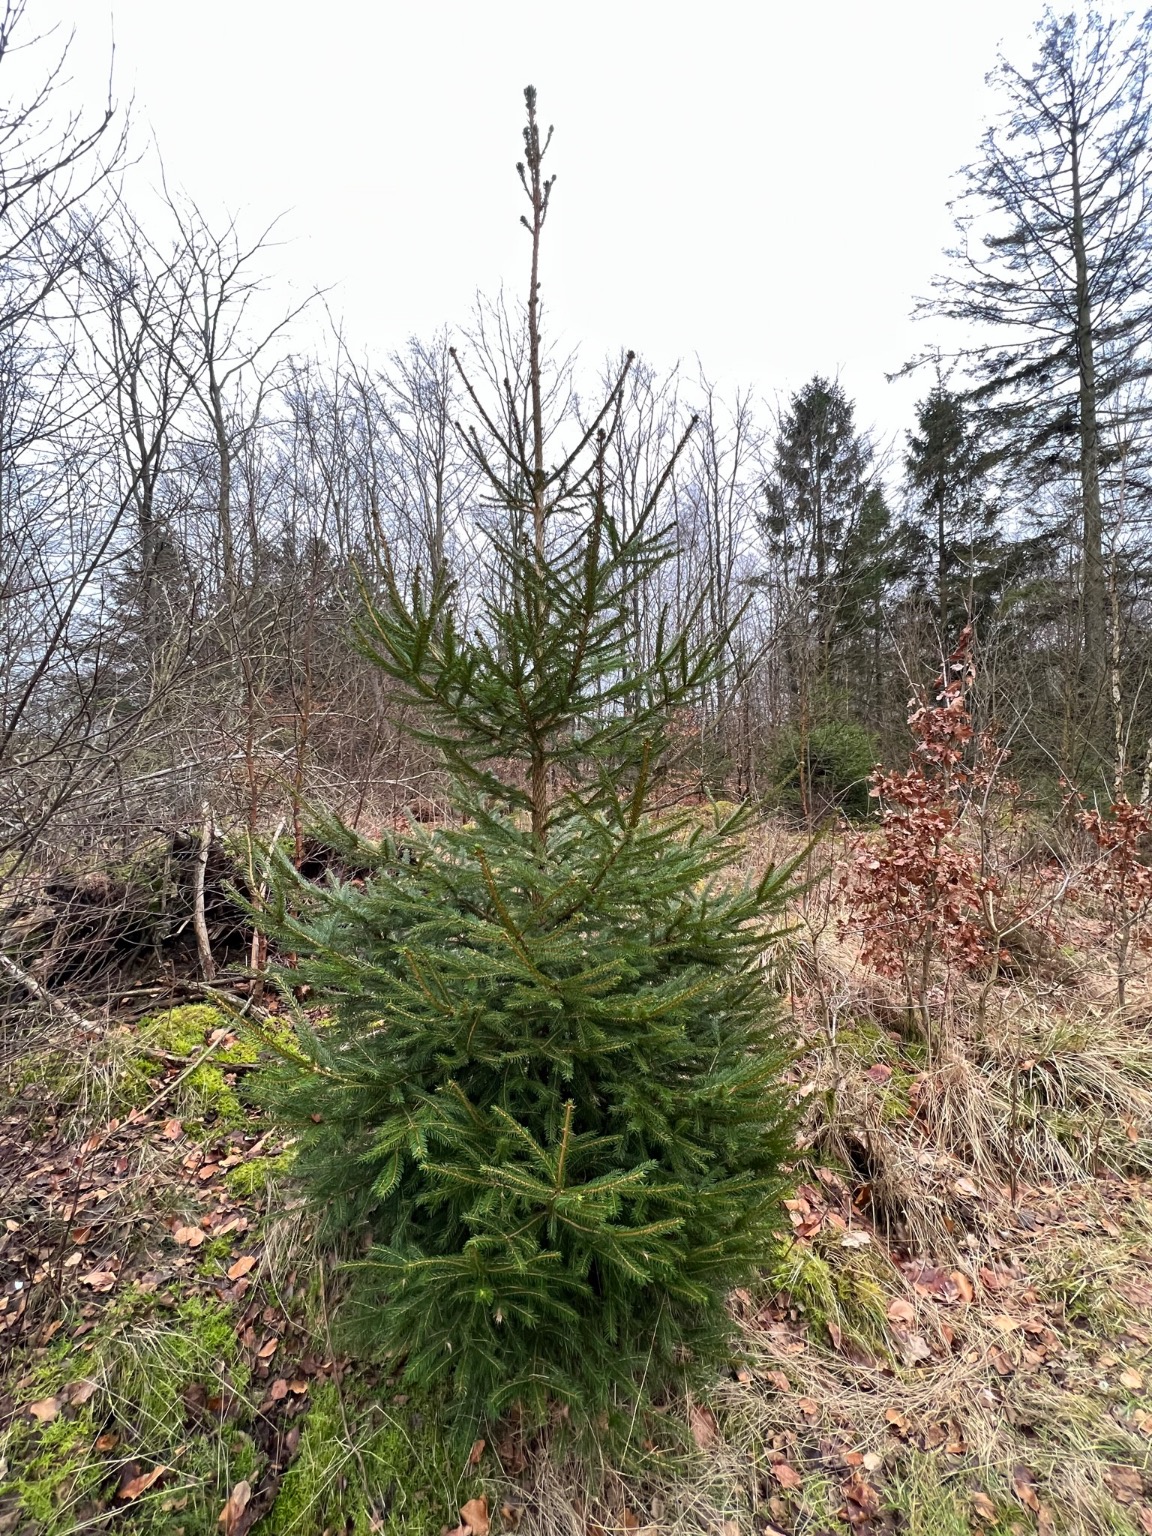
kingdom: Plantae
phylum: Tracheophyta
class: Pinopsida
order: Pinales
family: Pinaceae
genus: Picea
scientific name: Picea abies
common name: Rød-gran
